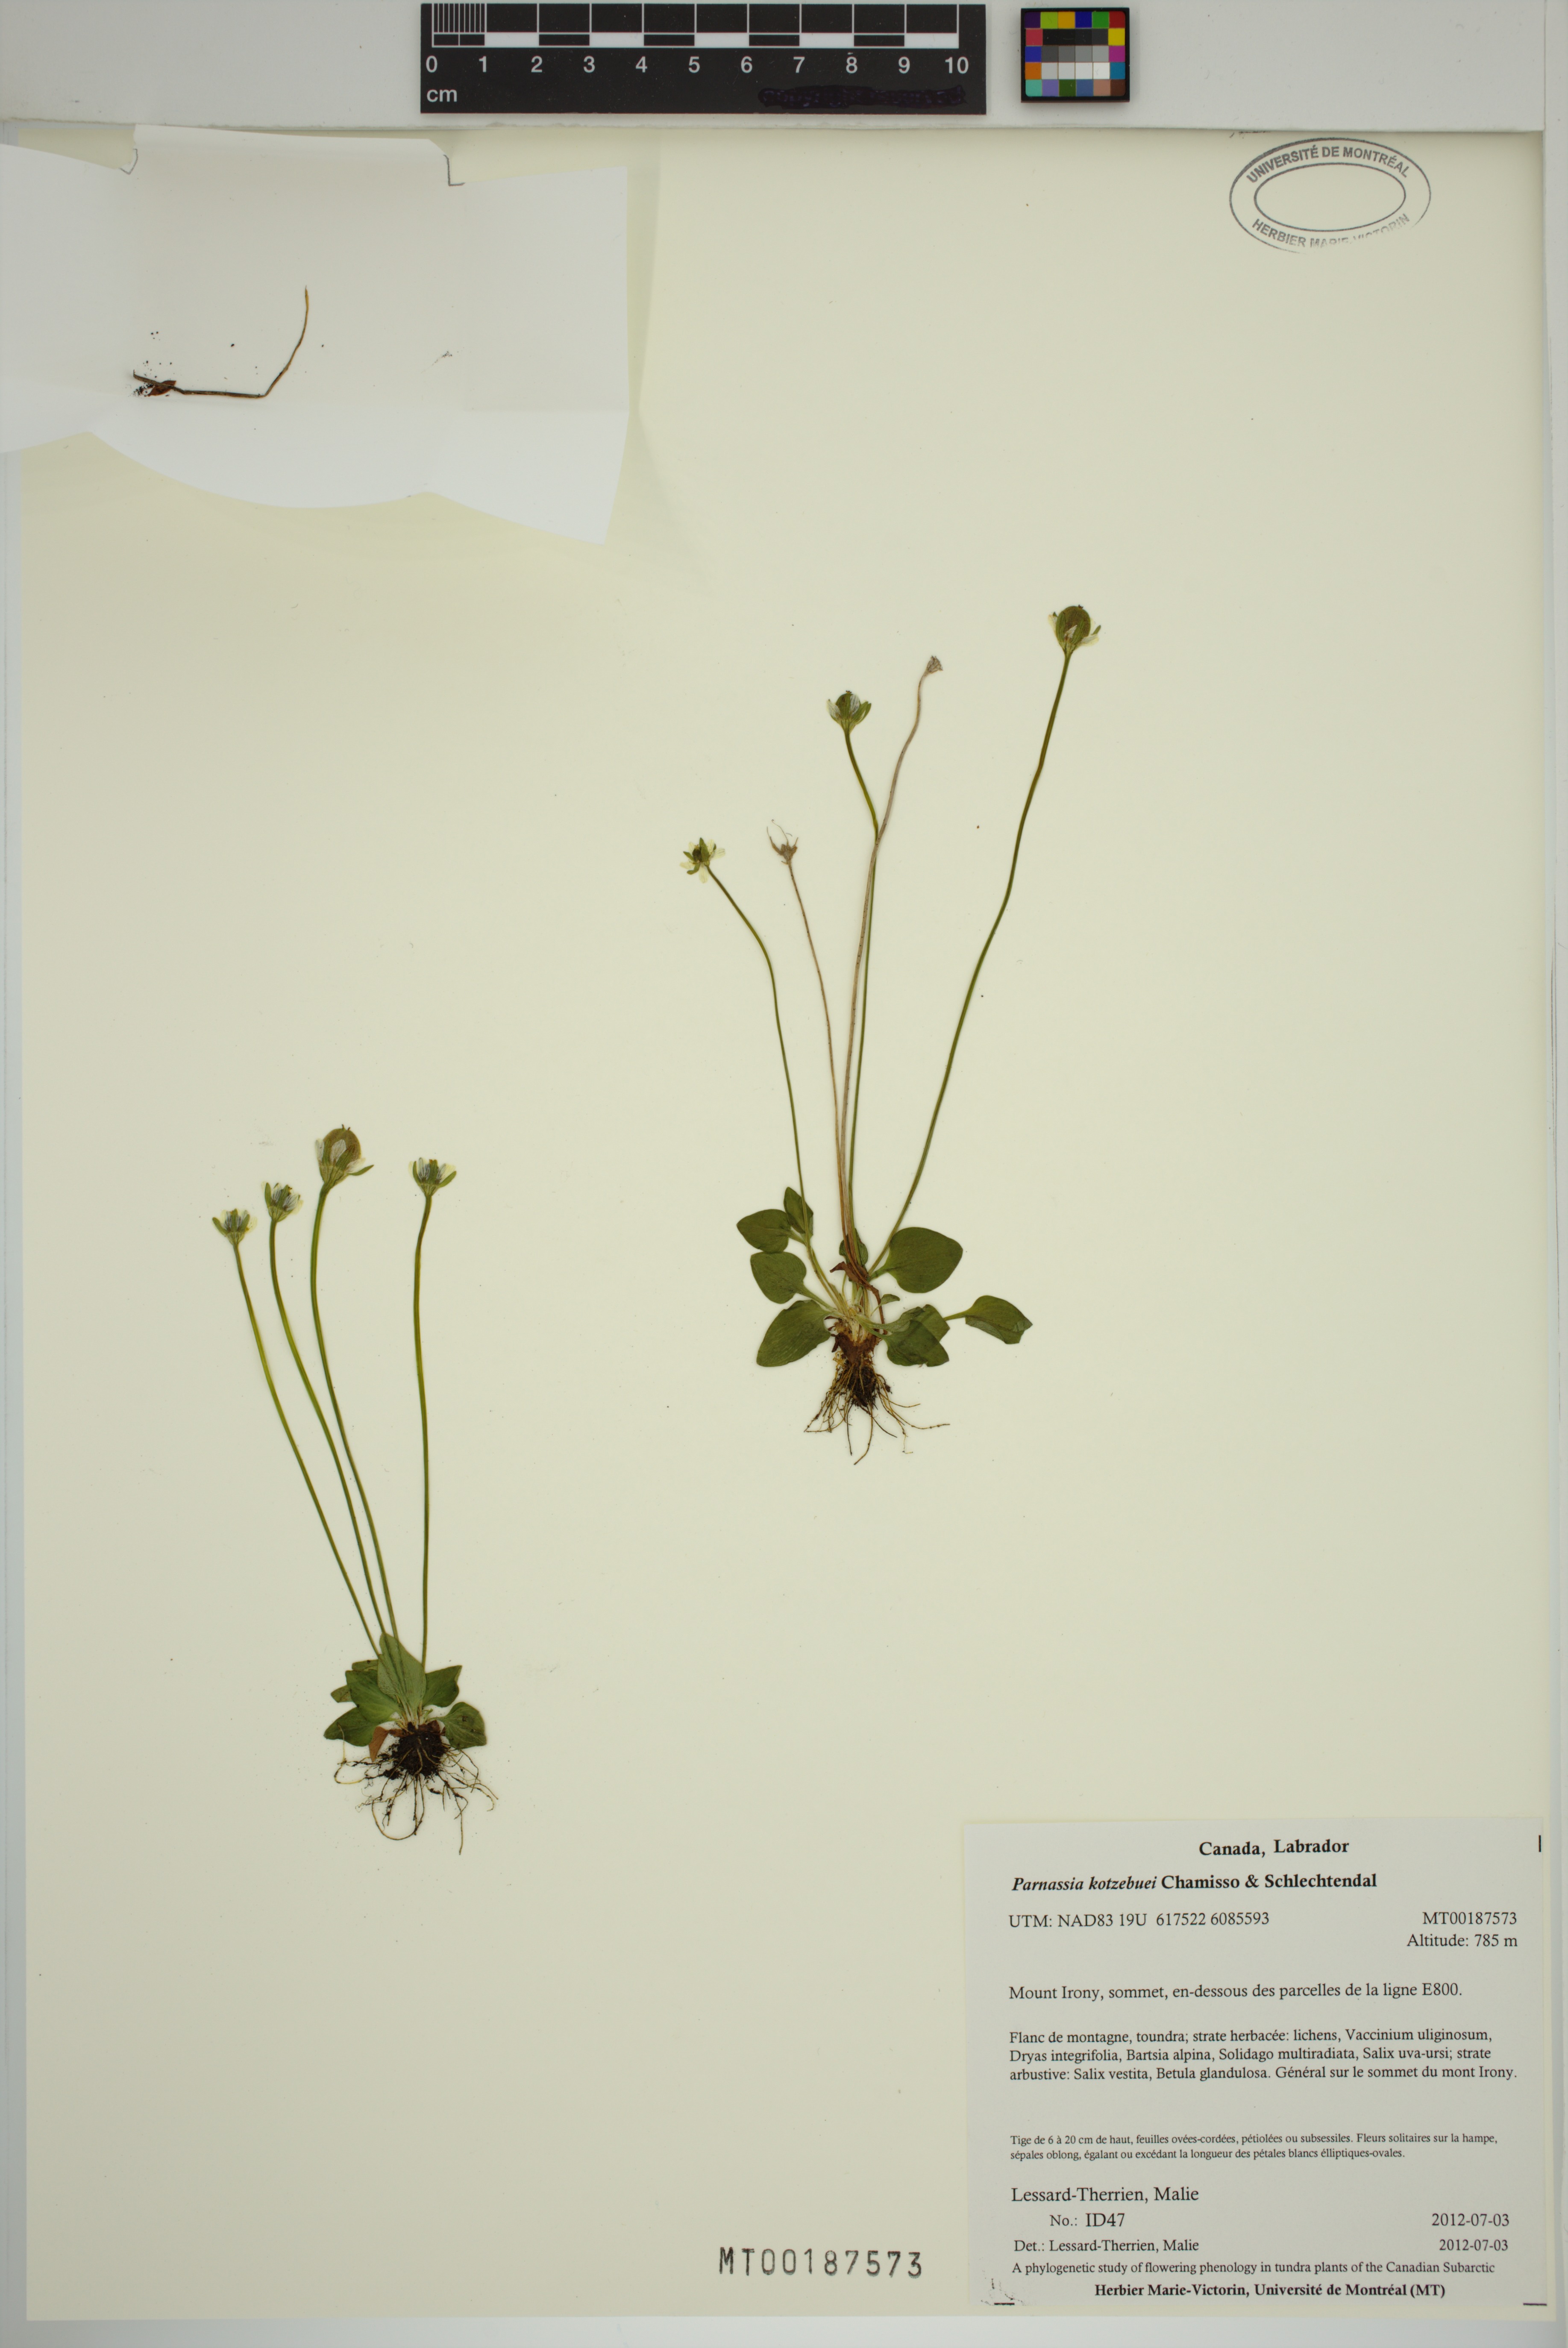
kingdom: Plantae
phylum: Tracheophyta
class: Magnoliopsida
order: Celastrales
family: Parnassiaceae
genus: Parnassia
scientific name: Parnassia kotzebuei
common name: Kotzebue's grass-of-parnassus
